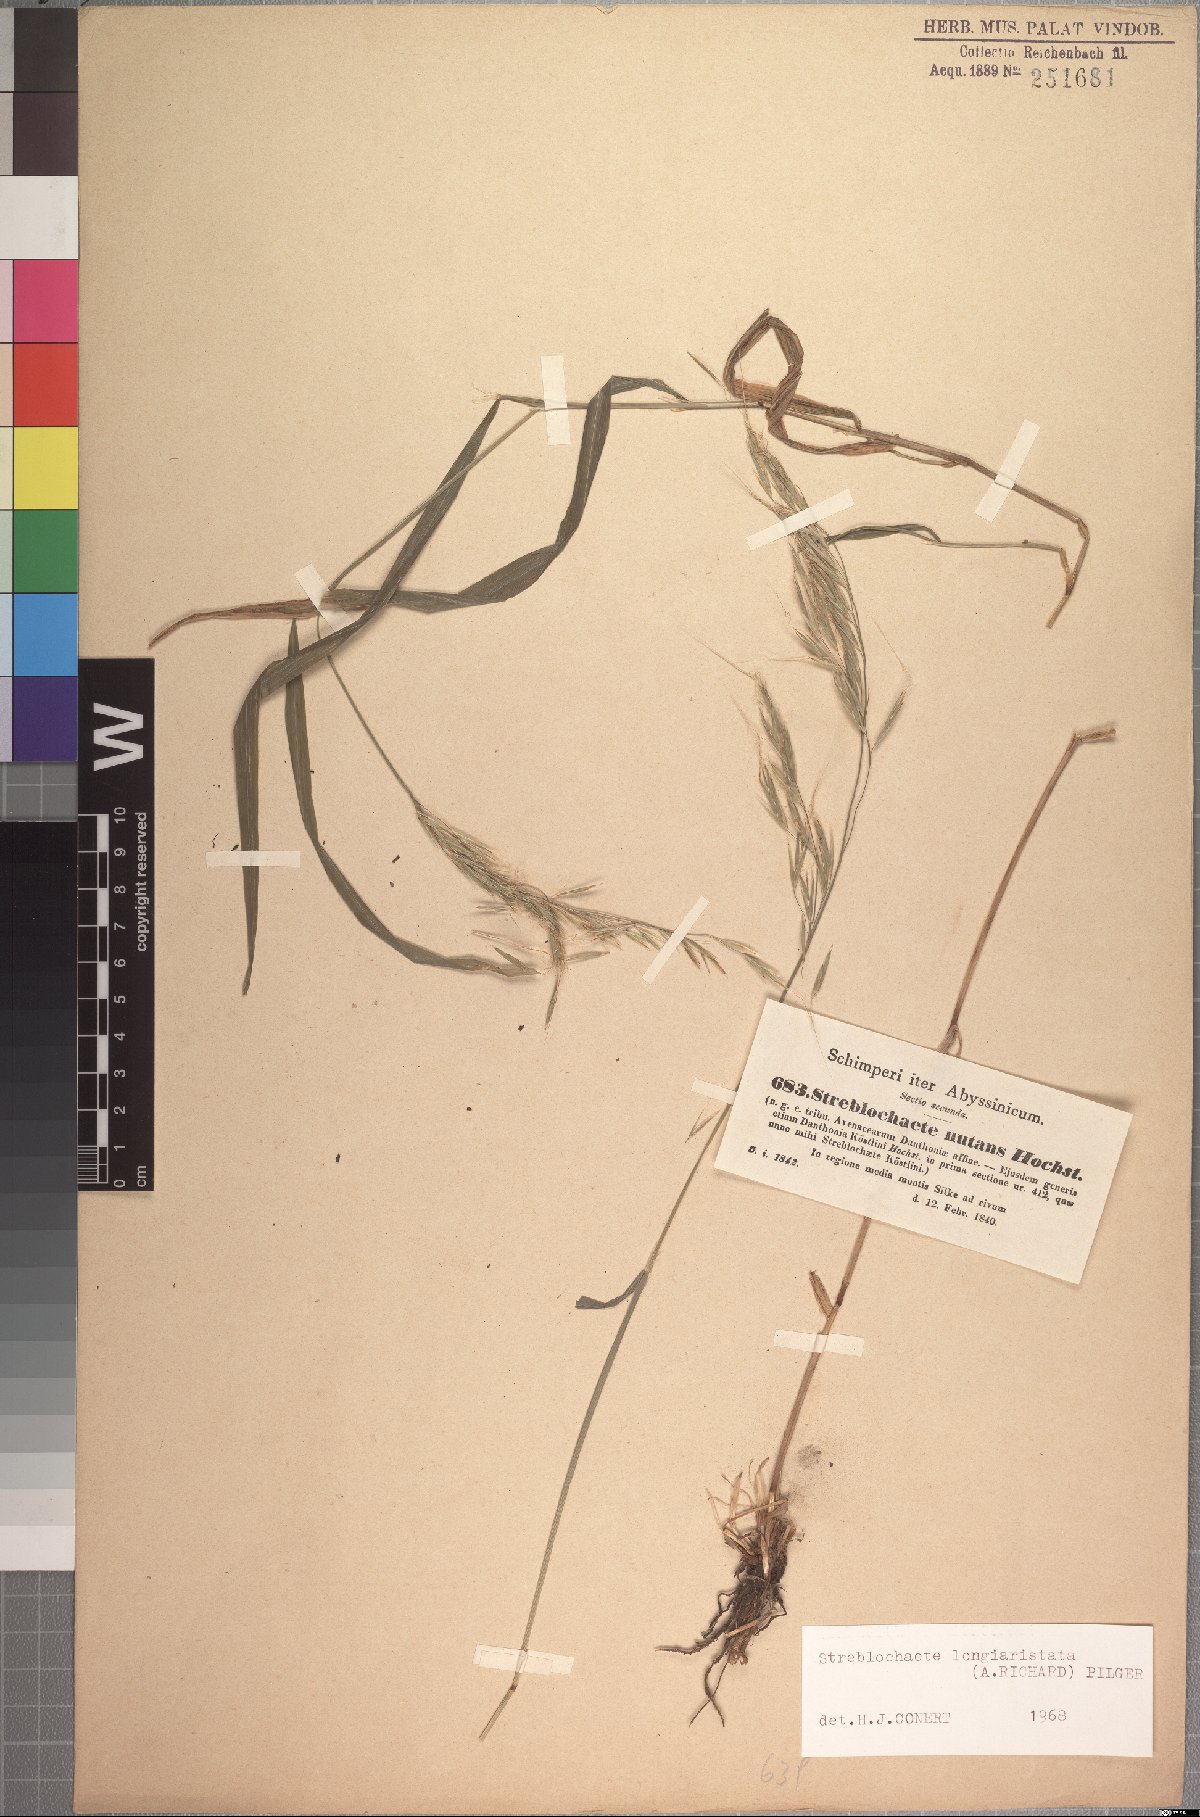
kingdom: Plantae
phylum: Tracheophyta
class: Liliopsida
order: Poales
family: Poaceae
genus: Koordersiochloa
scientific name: Koordersiochloa longiarista
